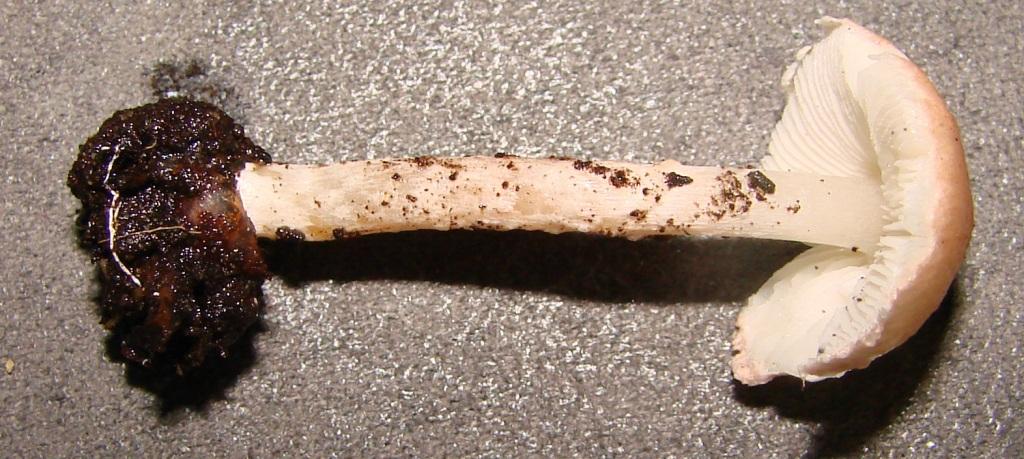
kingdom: Fungi
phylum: Basidiomycota
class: Agaricomycetes
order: Agaricales
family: Agaricaceae
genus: Lepiota
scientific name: Lepiota subincarnata
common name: kødfarvet parasolhat
